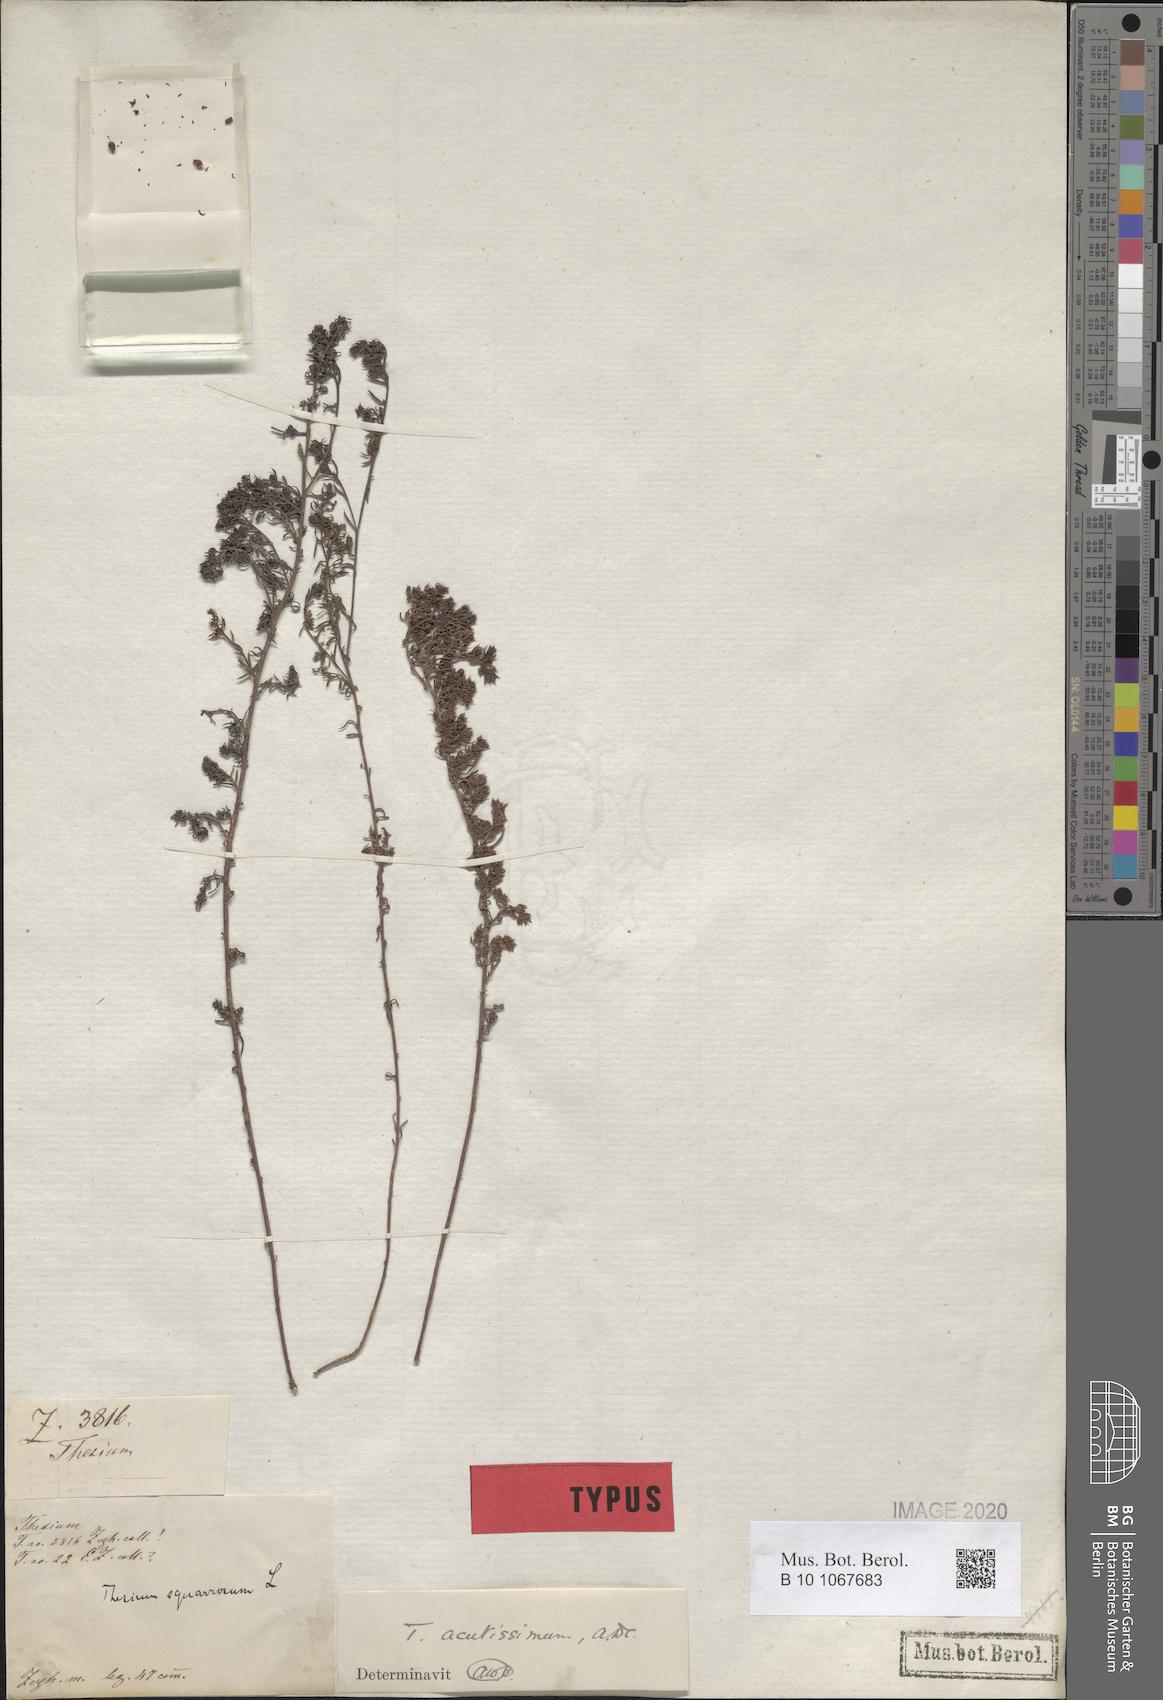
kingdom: Plantae
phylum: Tracheophyta
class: Magnoliopsida
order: Santalales
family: Thesiaceae
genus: Thesium
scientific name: Thesium acutissimum
